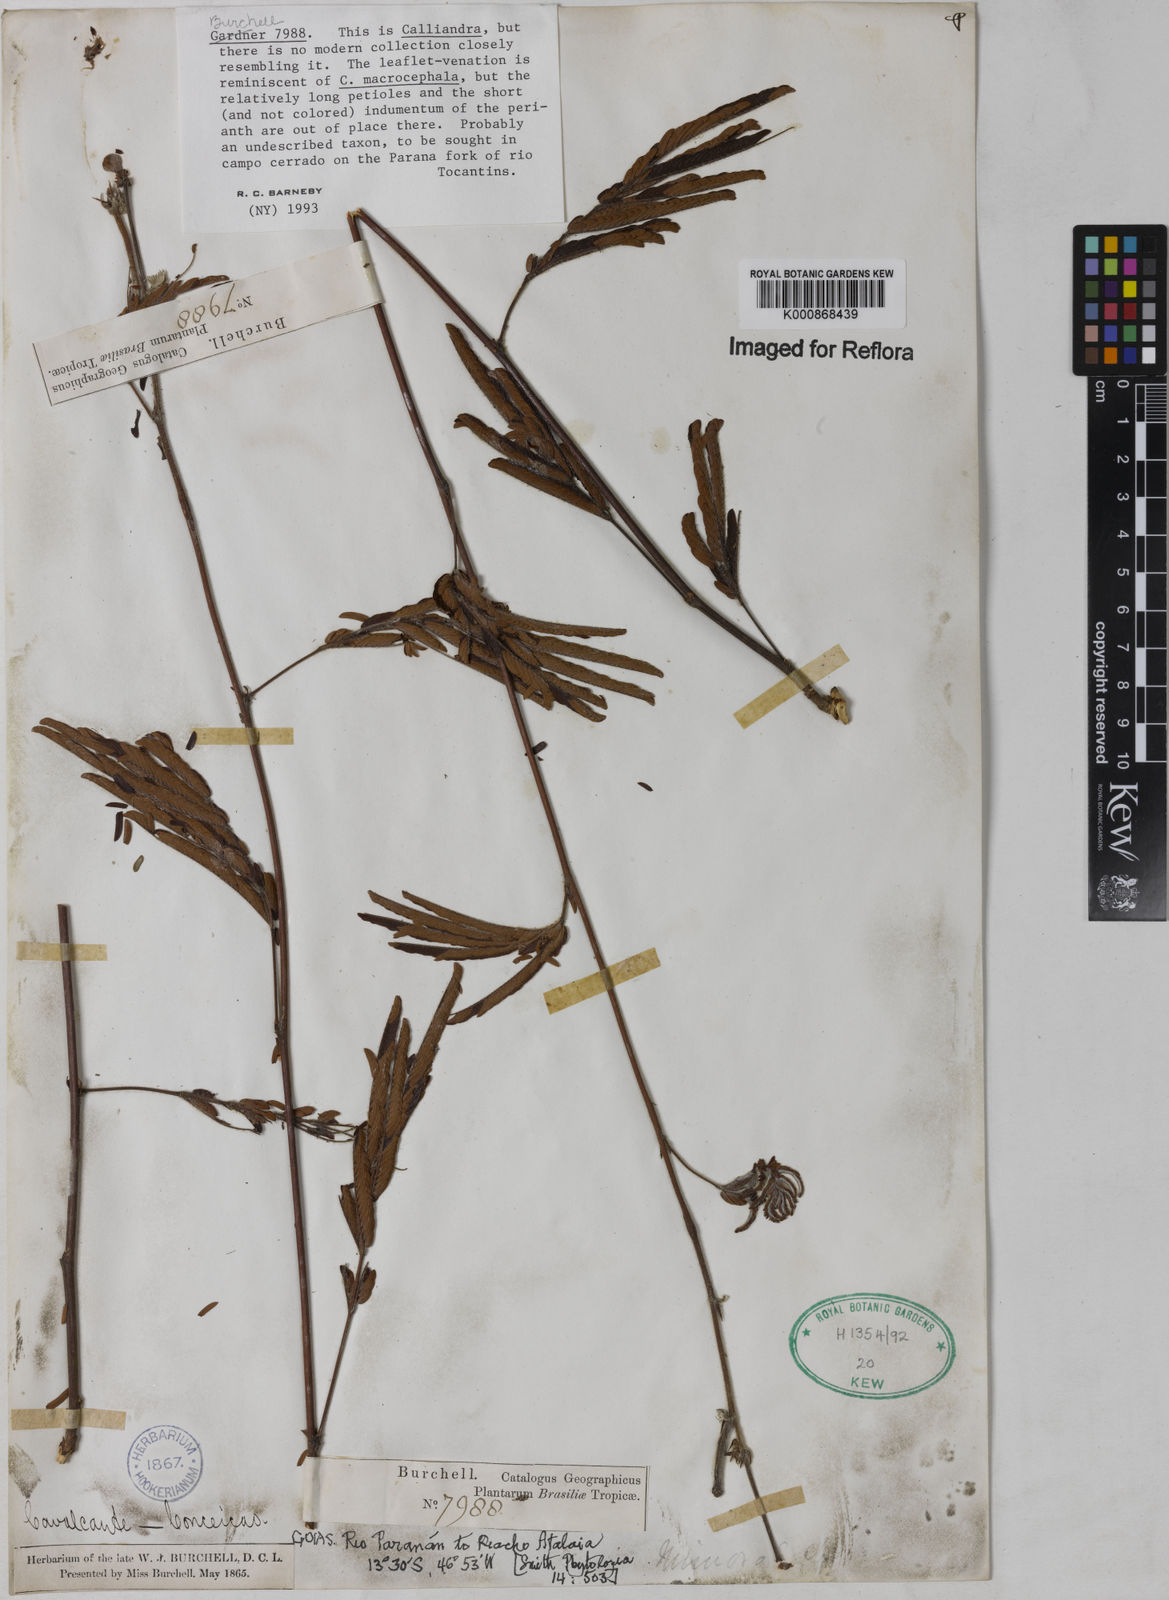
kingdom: Plantae
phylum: Tracheophyta
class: Magnoliopsida
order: Fabales
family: Fabaceae
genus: Calliandra
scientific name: Calliandra
